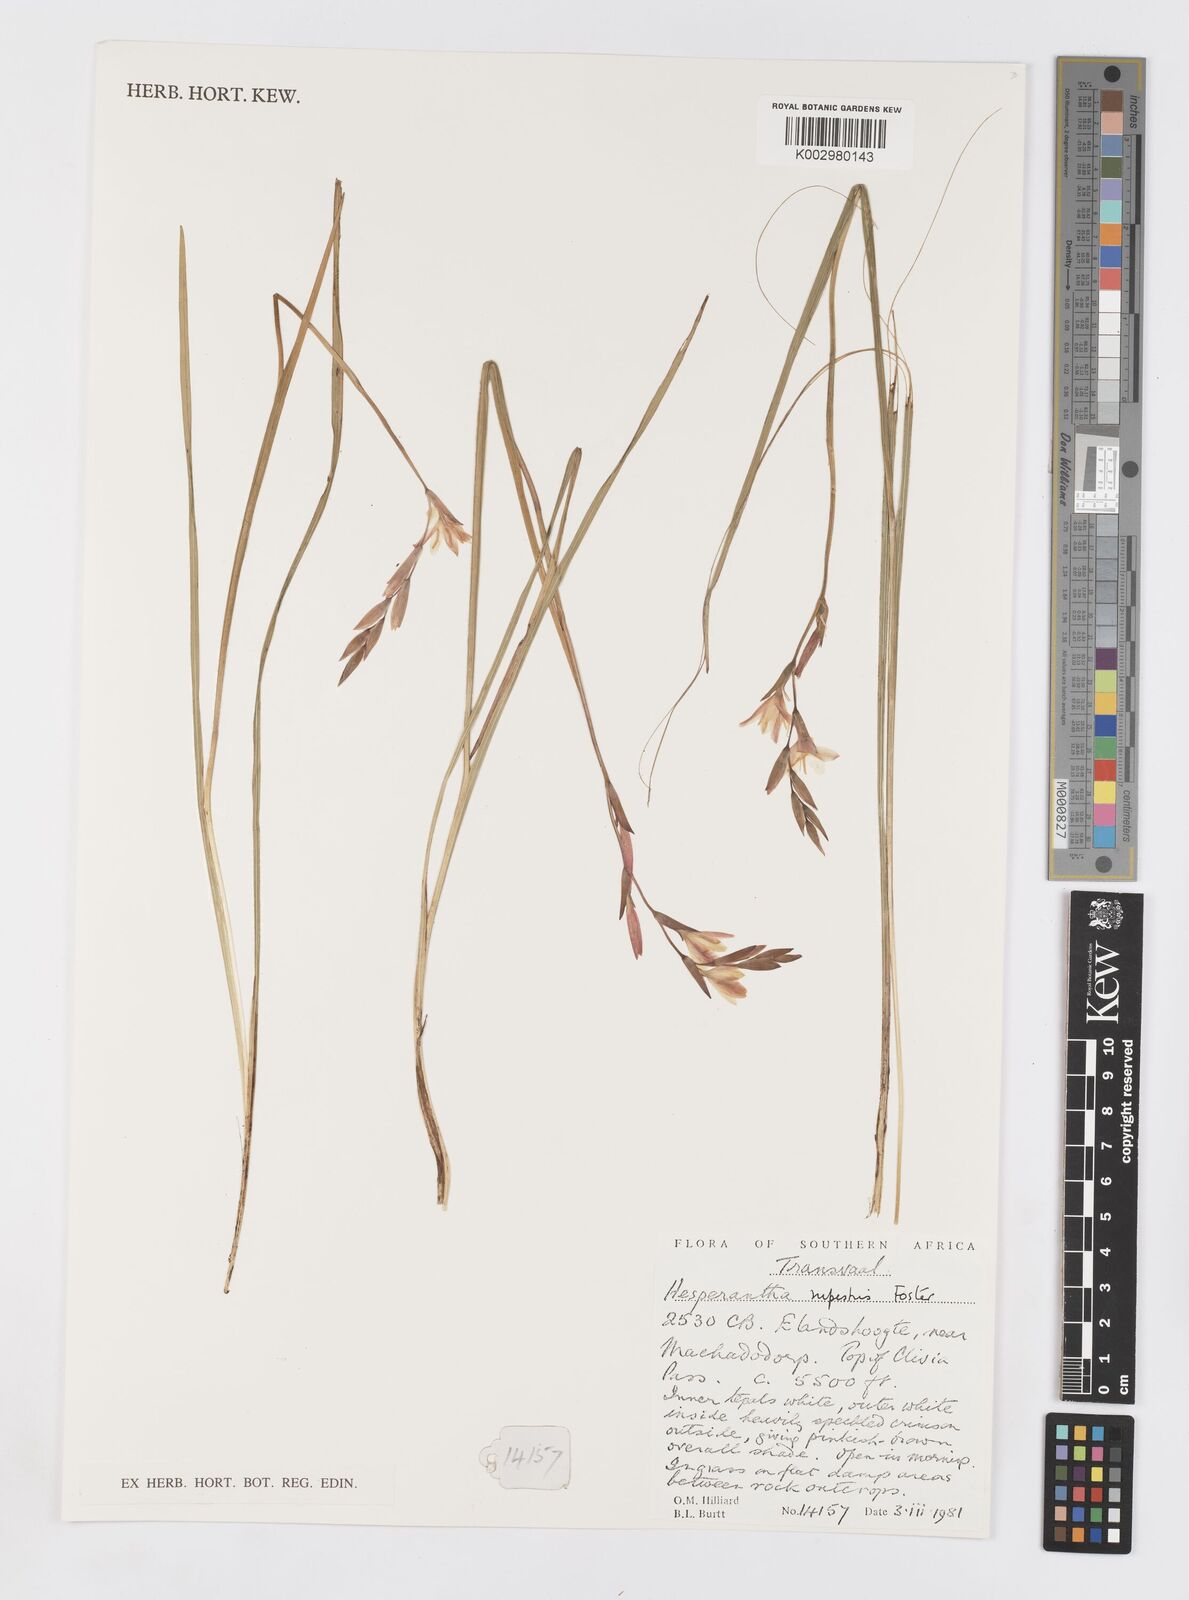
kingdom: Plantae
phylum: Tracheophyta
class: Liliopsida
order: Asparagales
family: Iridaceae
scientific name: Iridaceae
